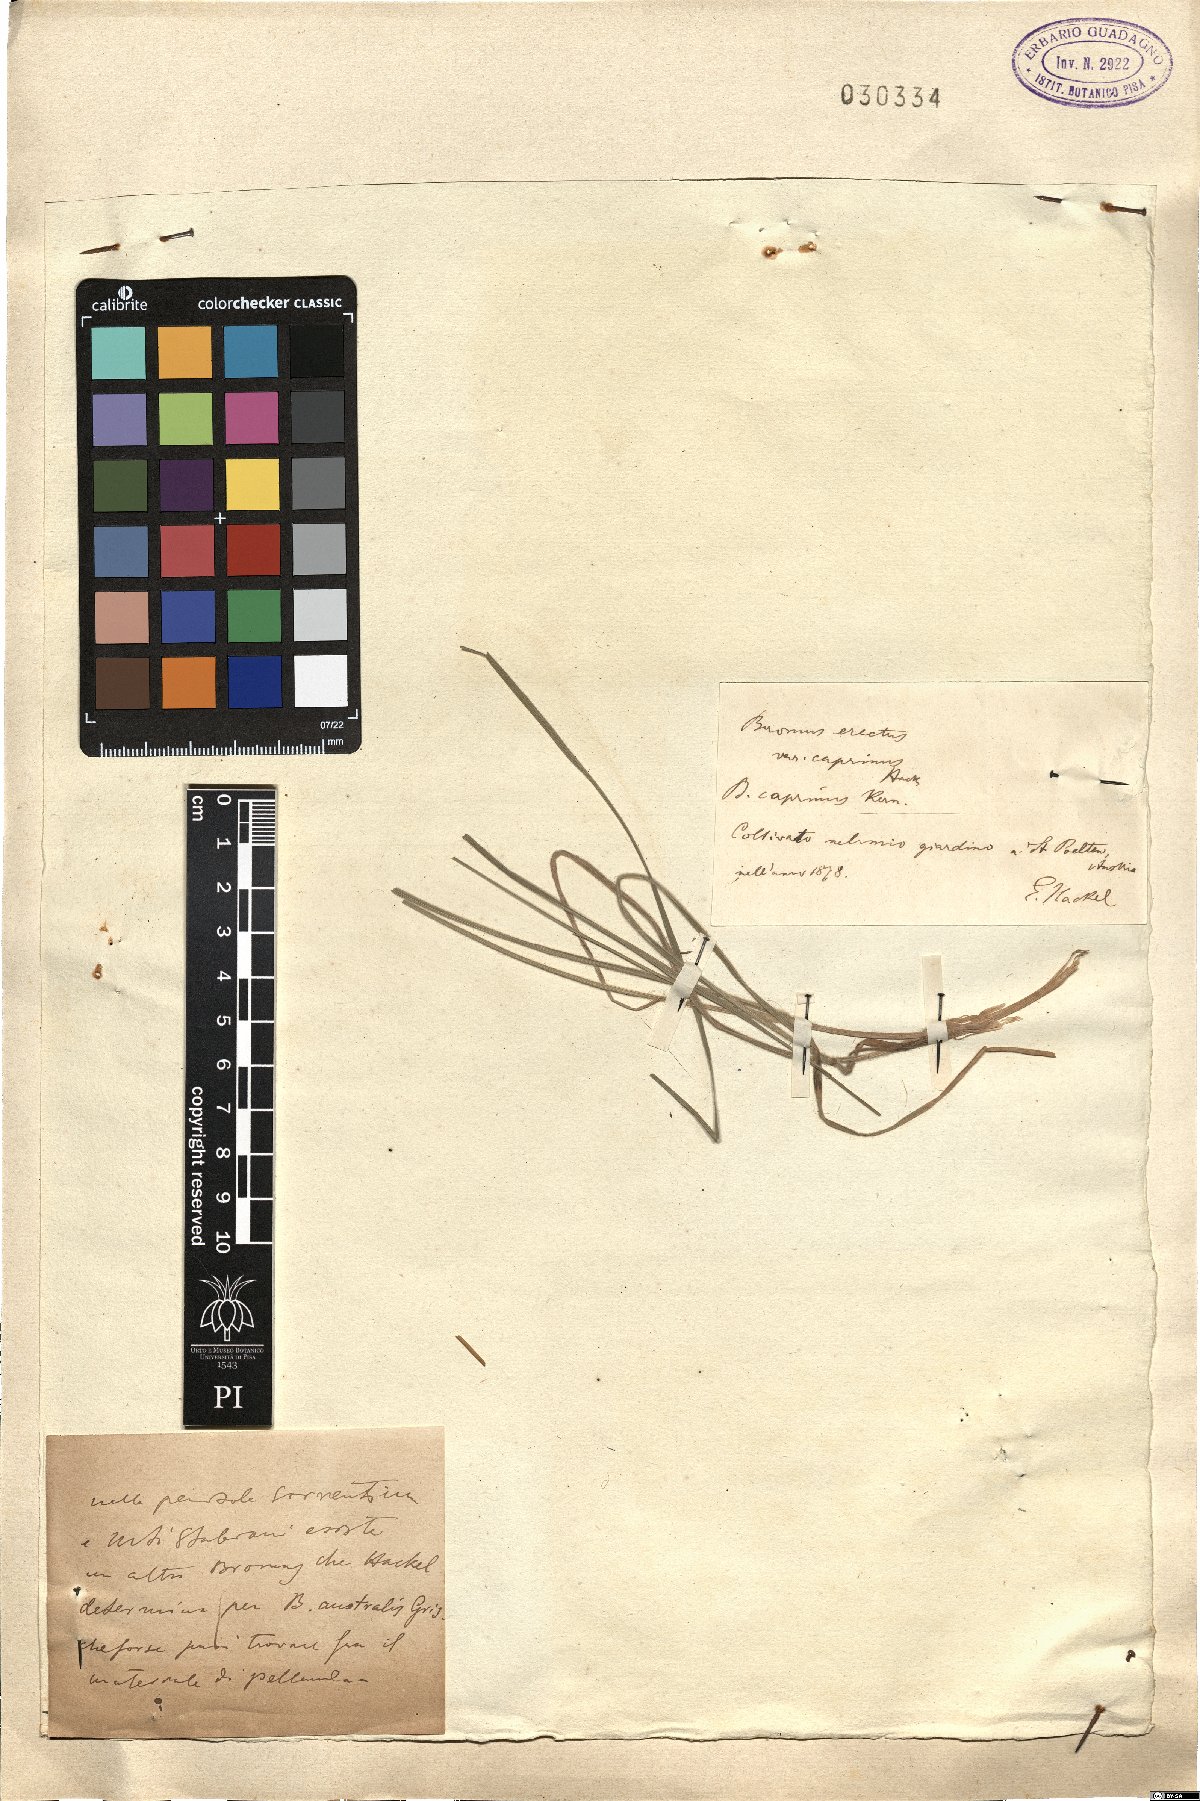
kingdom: Plantae
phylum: Tracheophyta
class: Liliopsida
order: Poales
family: Poaceae
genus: Bromus
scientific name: Bromus erectus
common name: Erect brome
